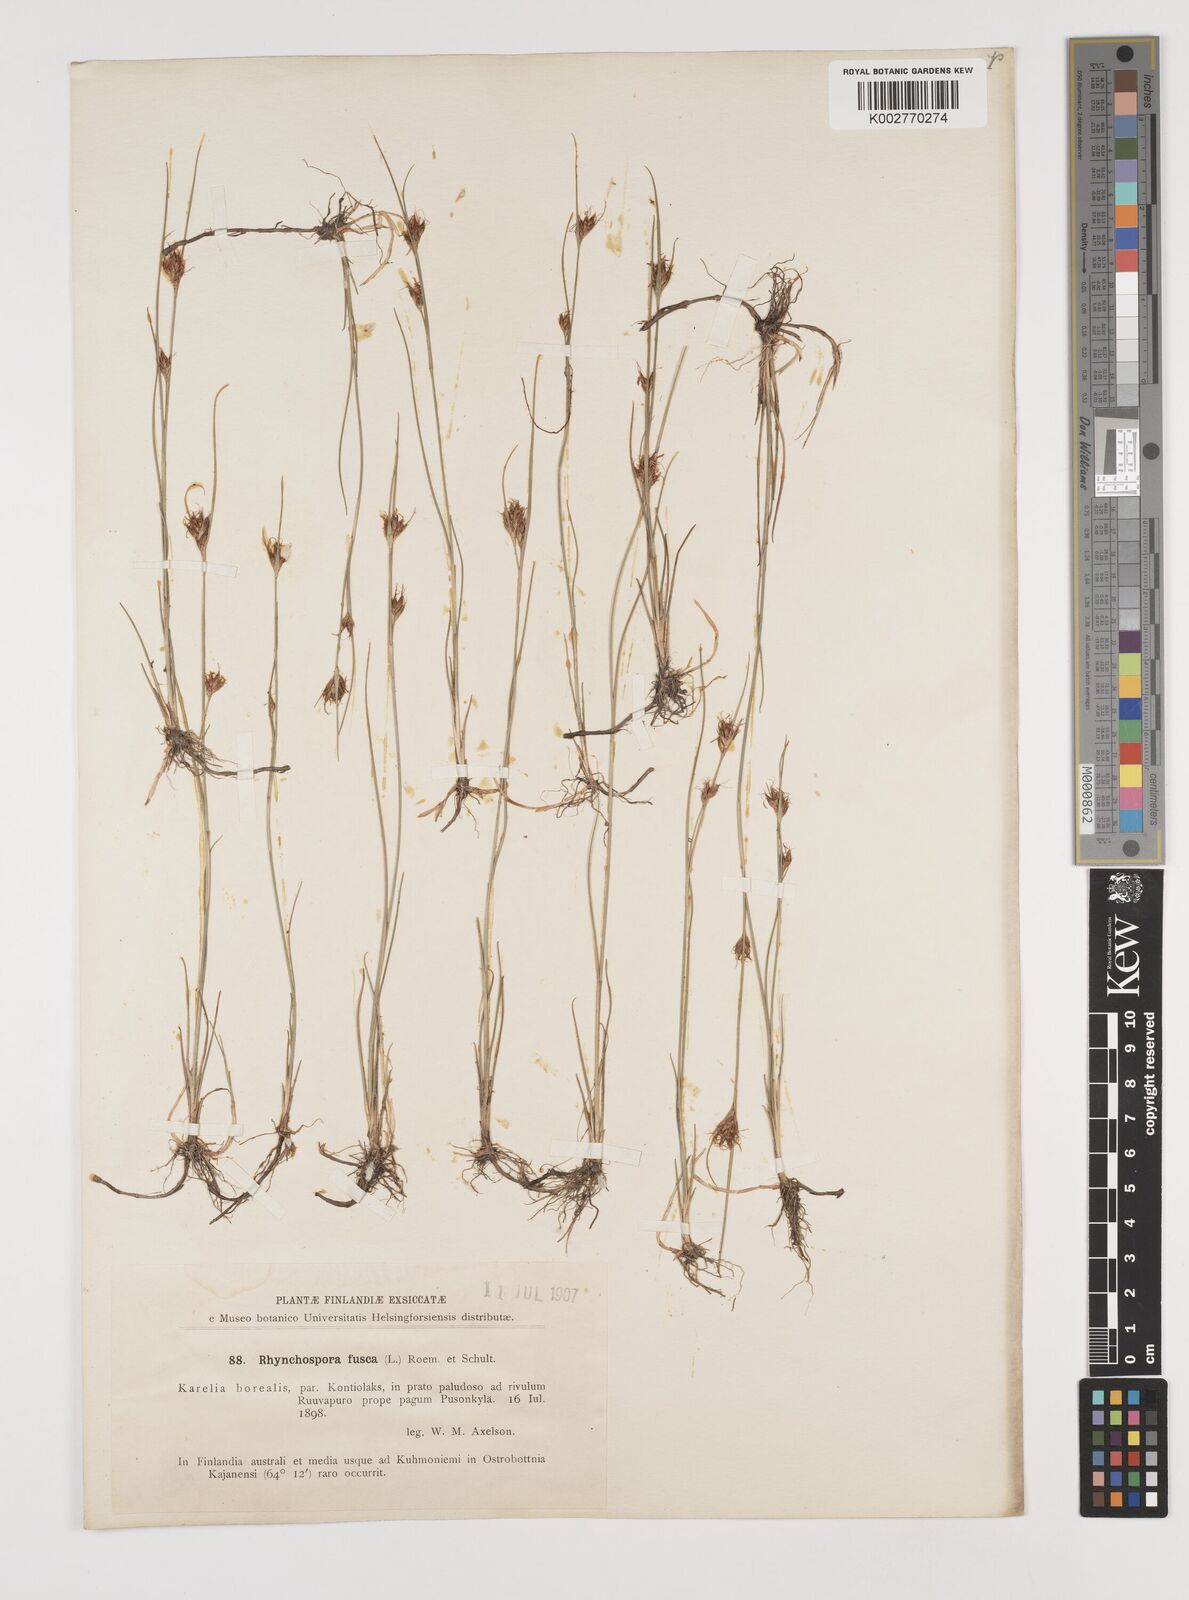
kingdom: Plantae
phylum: Tracheophyta
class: Liliopsida
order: Poales
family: Cyperaceae
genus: Rhynchospora
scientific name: Rhynchospora fusca
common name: Brown beak-sedge
